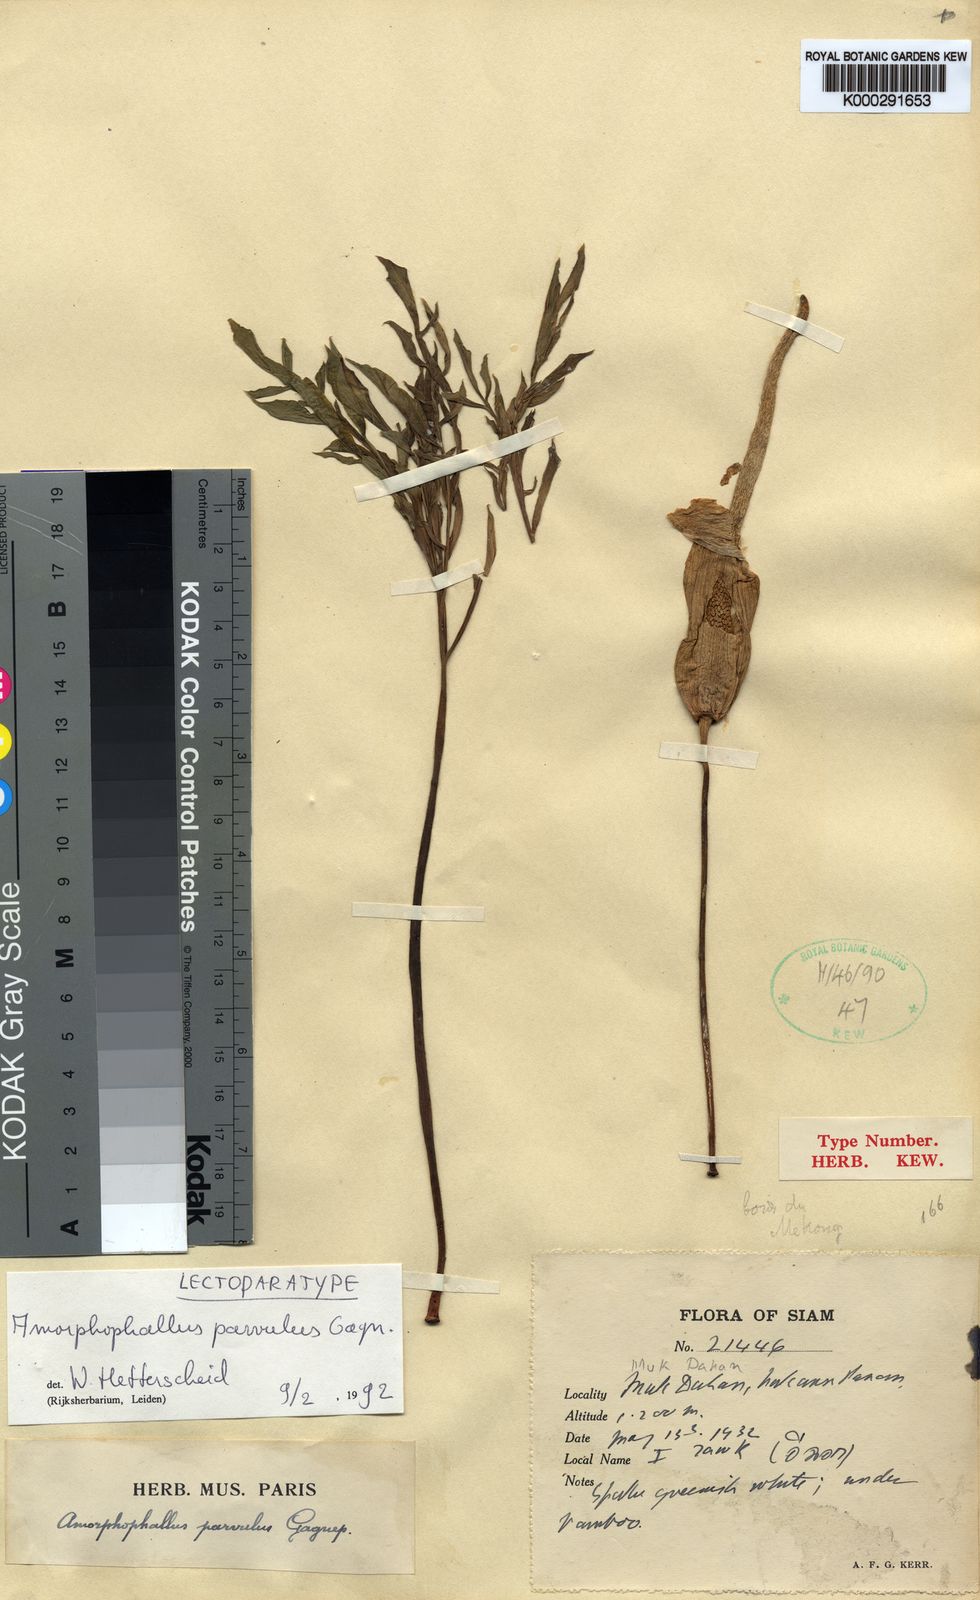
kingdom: Plantae
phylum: Tracheophyta
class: Liliopsida
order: Alismatales
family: Araceae
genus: Amorphophallus
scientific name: Amorphophallus harmandii
